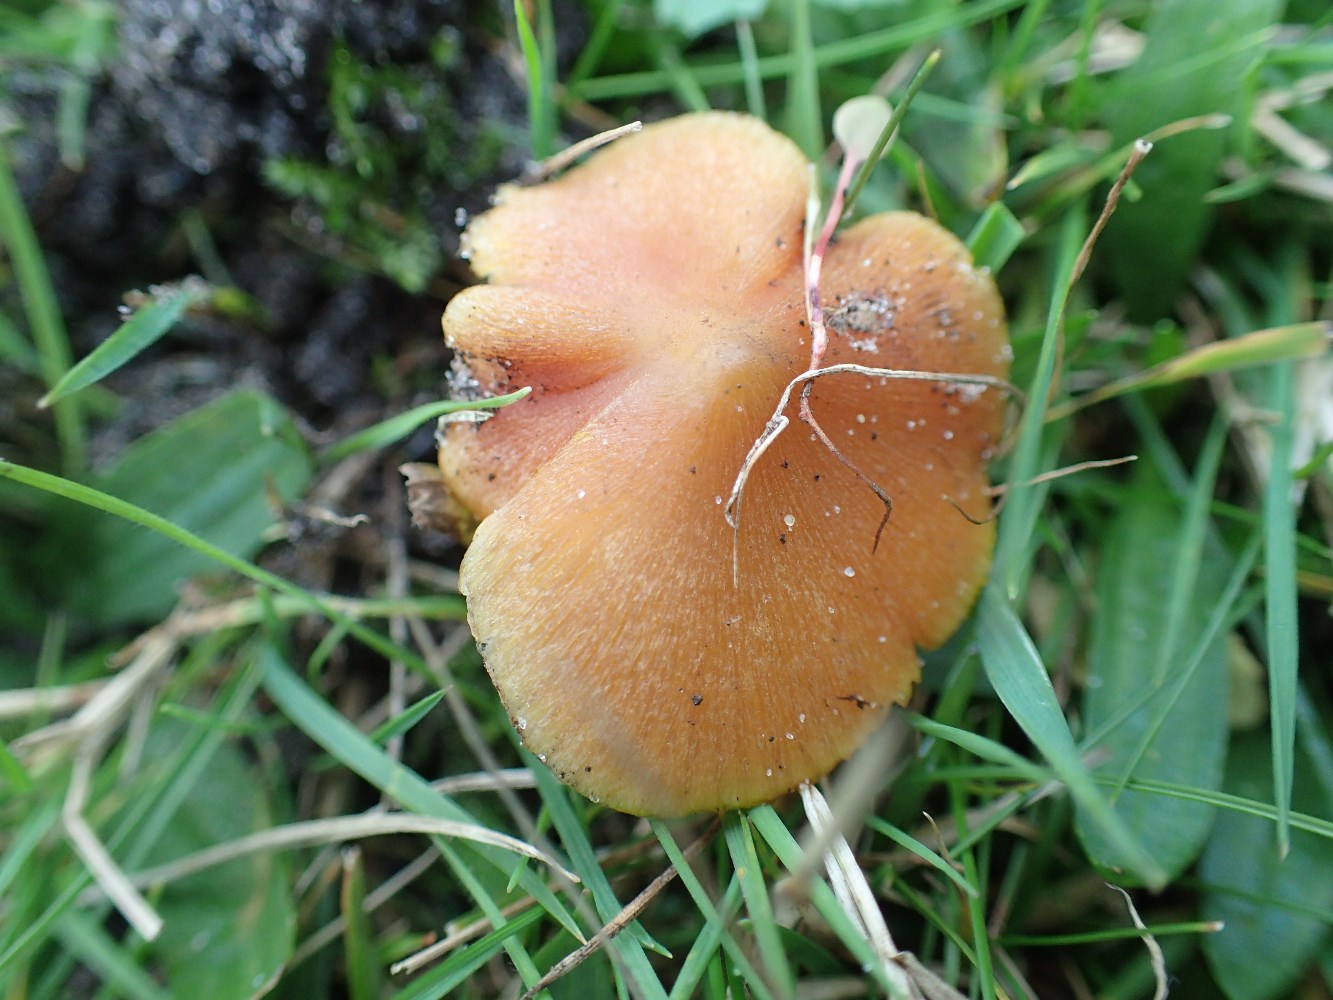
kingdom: Fungi
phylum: Basidiomycota
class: Agaricomycetes
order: Agaricales
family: Hygrophoraceae
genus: Hygrocybe
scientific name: Hygrocybe conica
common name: kegle-vokshat
